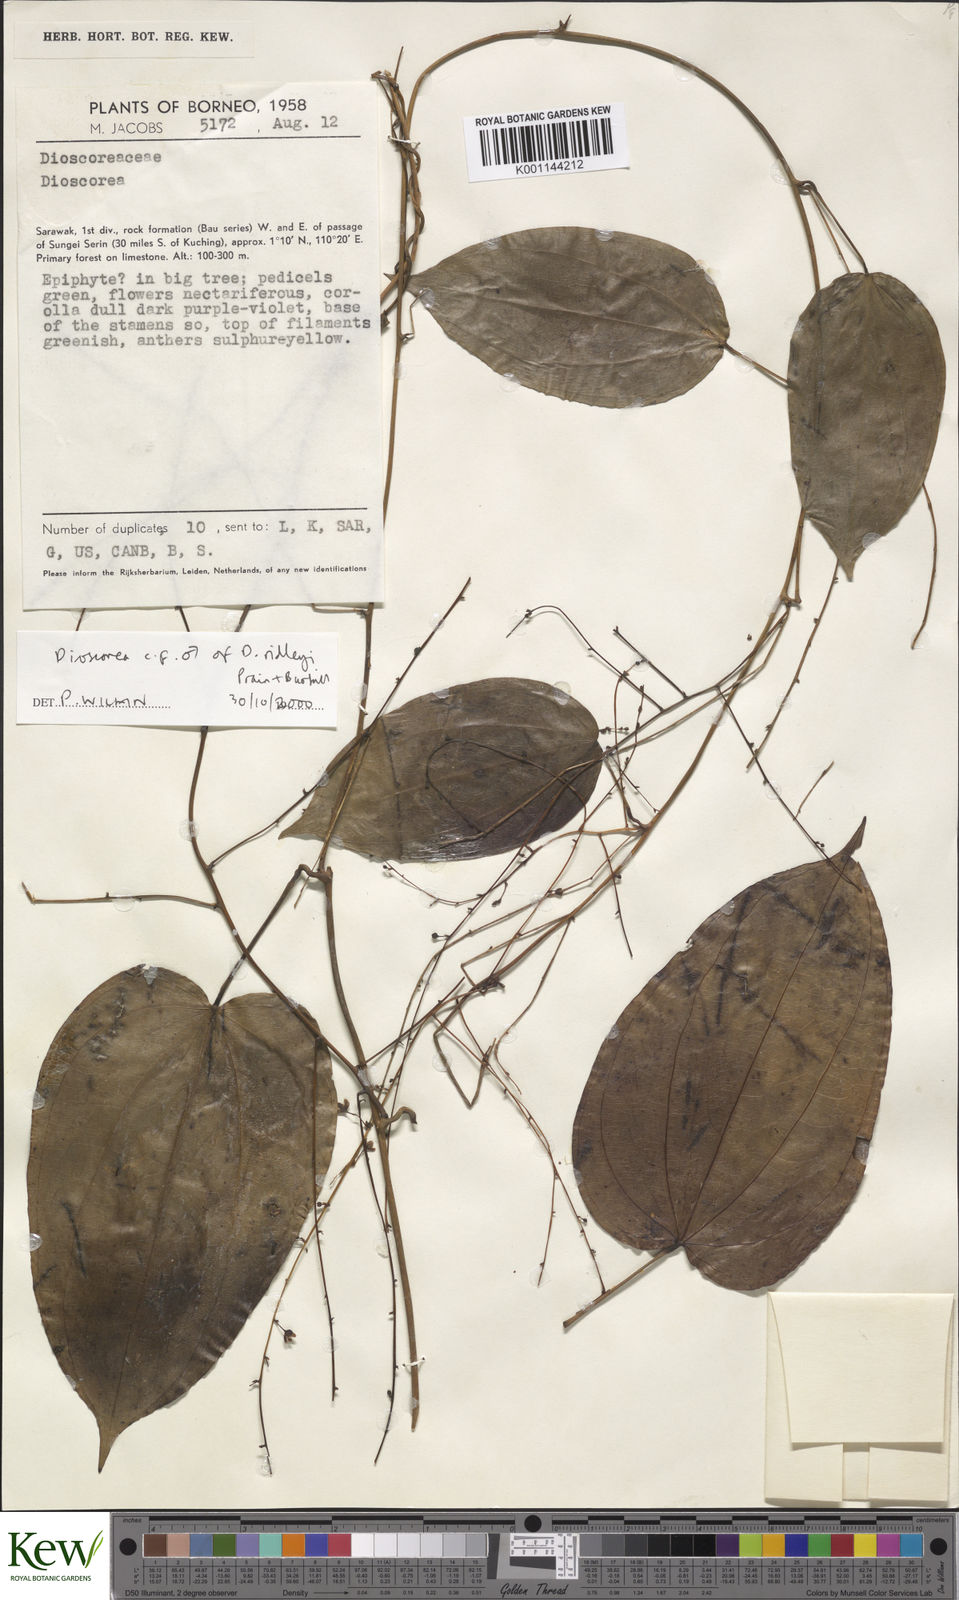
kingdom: Plantae
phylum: Tracheophyta
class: Liliopsida
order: Dioscoreales
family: Dioscoreaceae
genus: Dioscorea
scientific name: Dioscorea ridleyi
